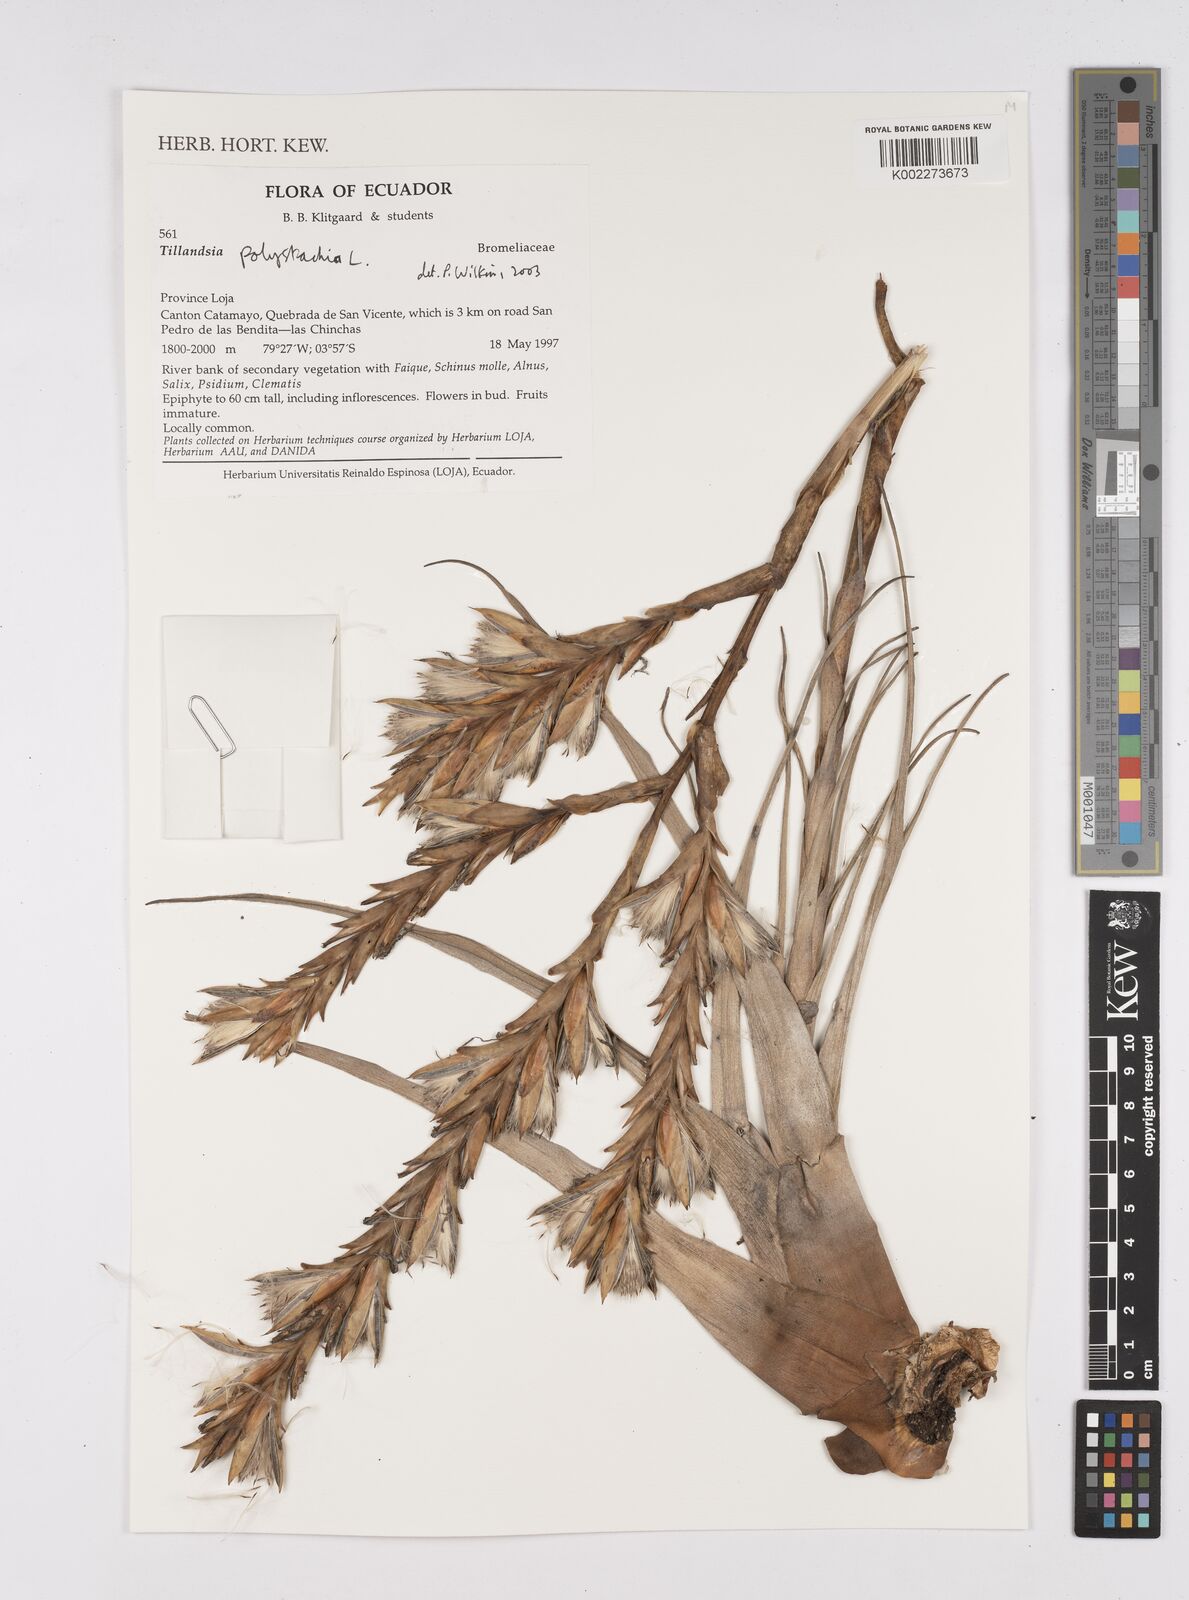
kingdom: Plantae
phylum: Tracheophyta
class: Liliopsida
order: Poales
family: Bromeliaceae
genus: Tillandsia
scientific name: Tillandsia polystachia
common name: Airplant
